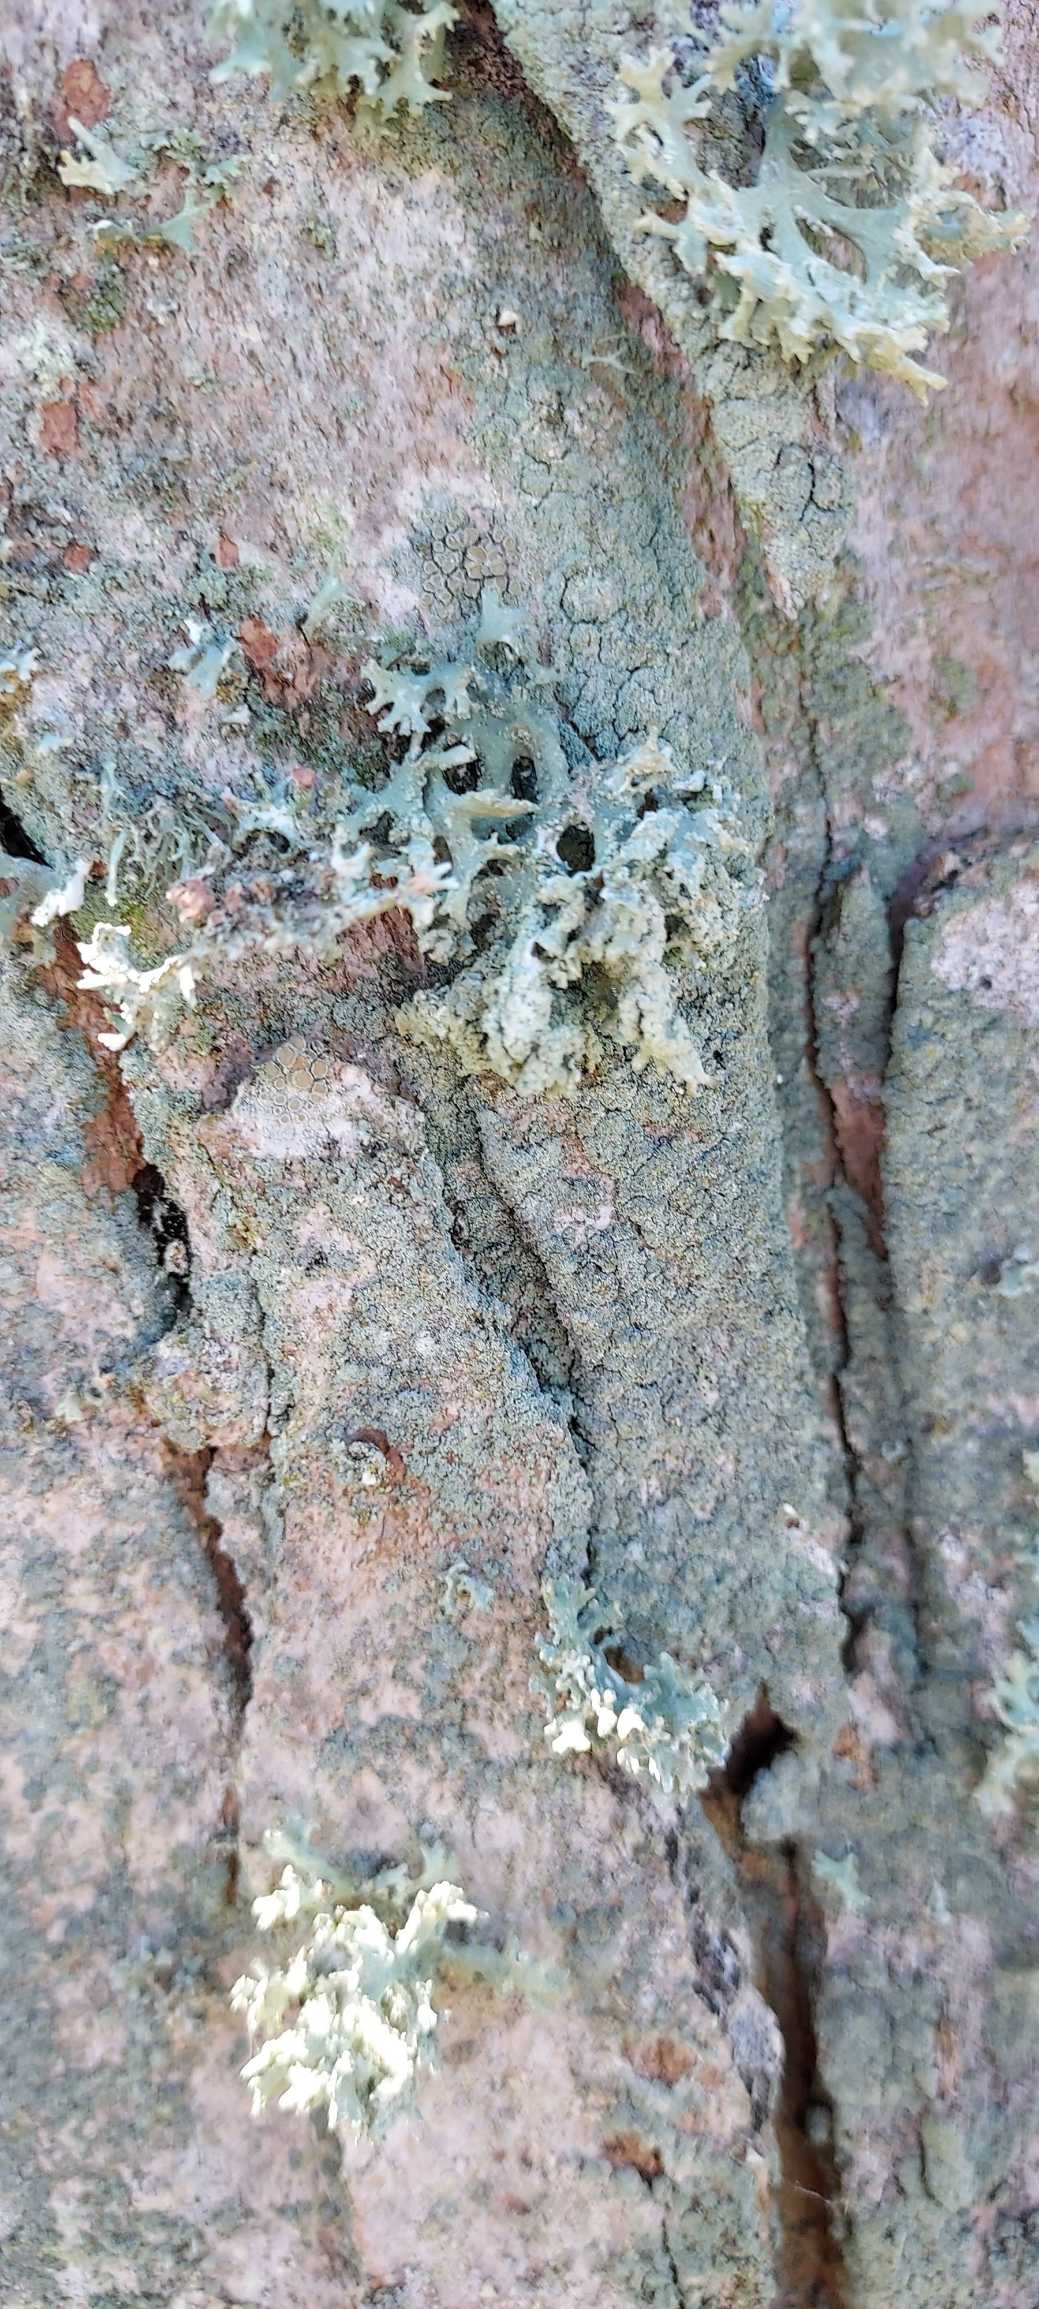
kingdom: Fungi
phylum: Ascomycota
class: Lecanoromycetes
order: Lecanorales
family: Parmeliaceae
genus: Evernia
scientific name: Evernia prunastri
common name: Almindelig slåenlav
